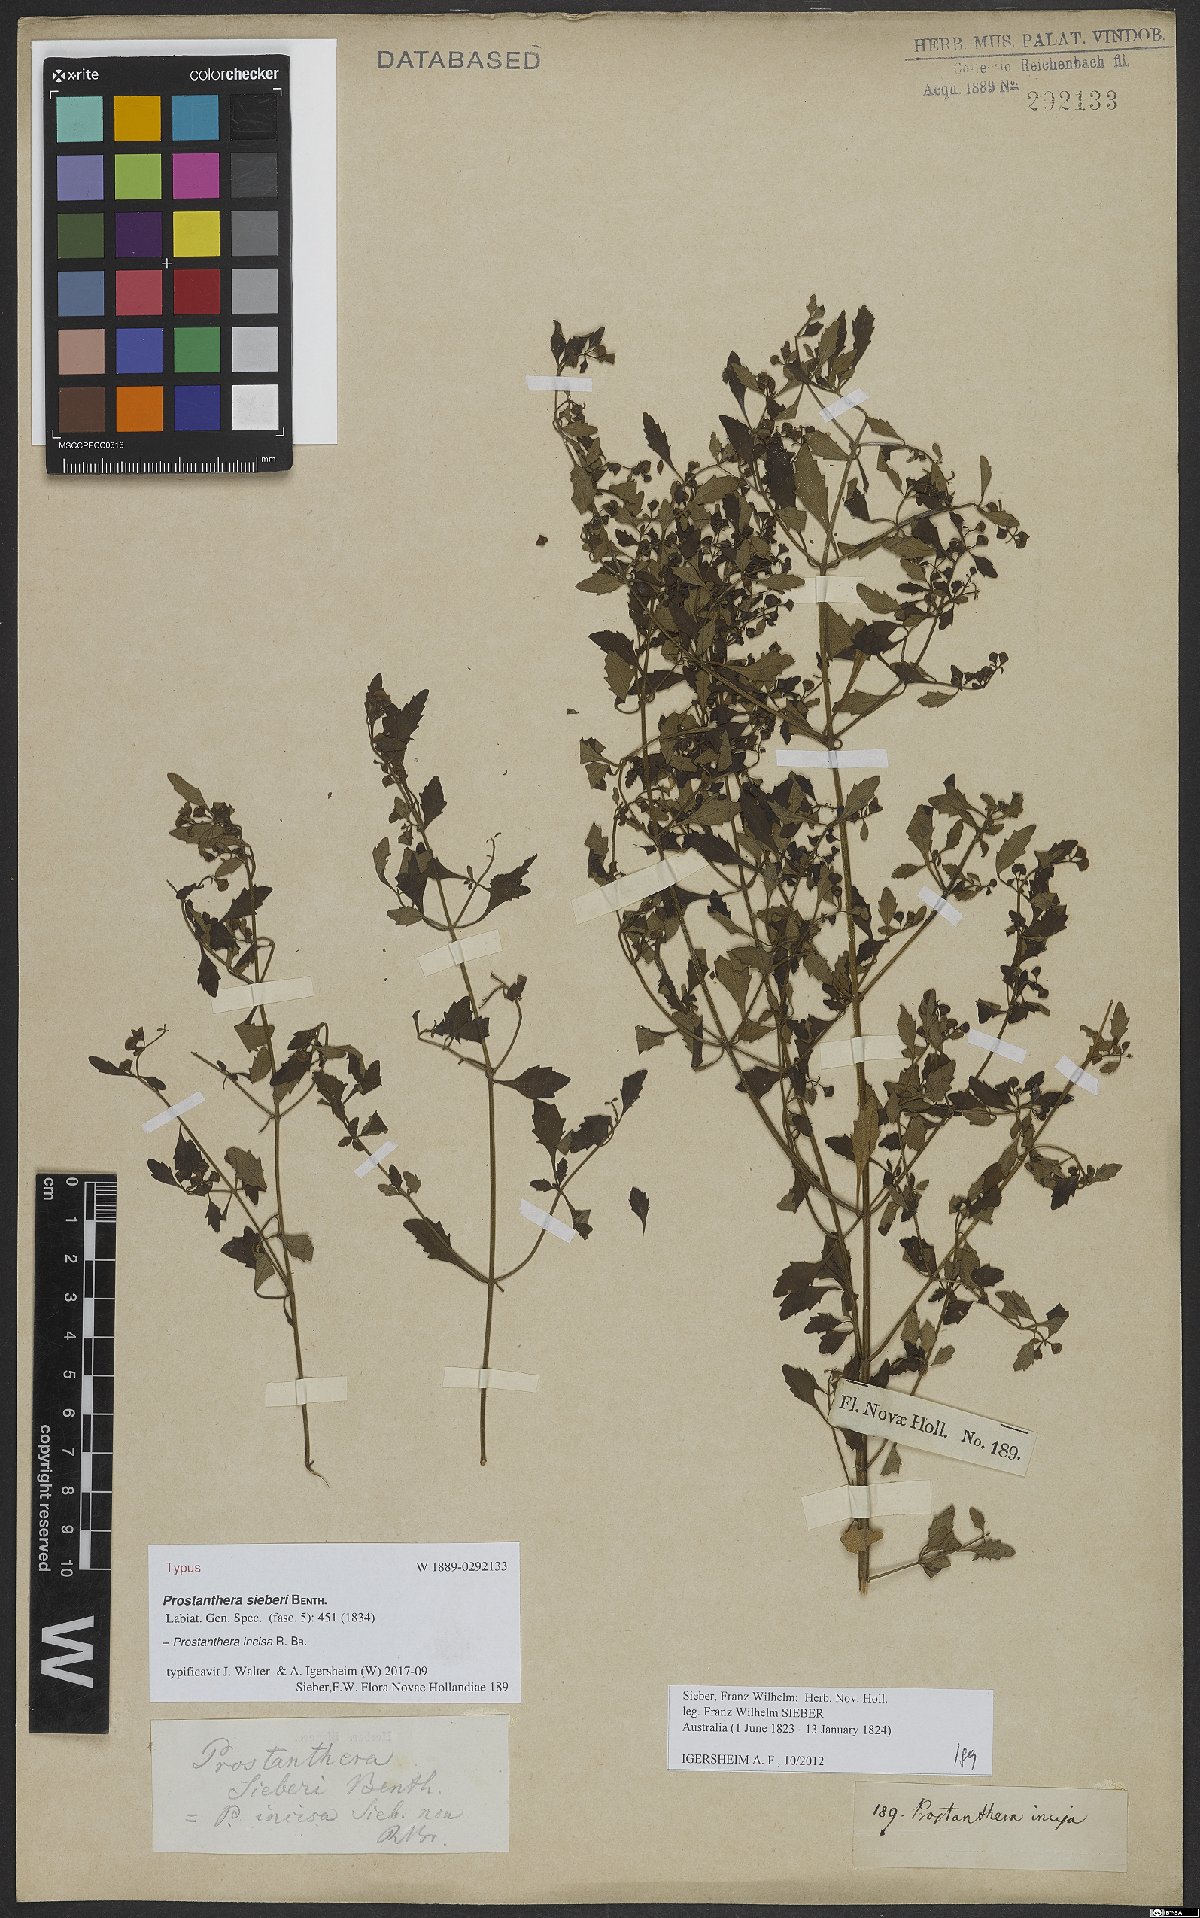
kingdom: Plantae
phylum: Tracheophyta
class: Magnoliopsida
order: Lamiales
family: Lamiaceae
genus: Prostanthera
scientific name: Prostanthera incisa
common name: Cut-leaf mintbush
